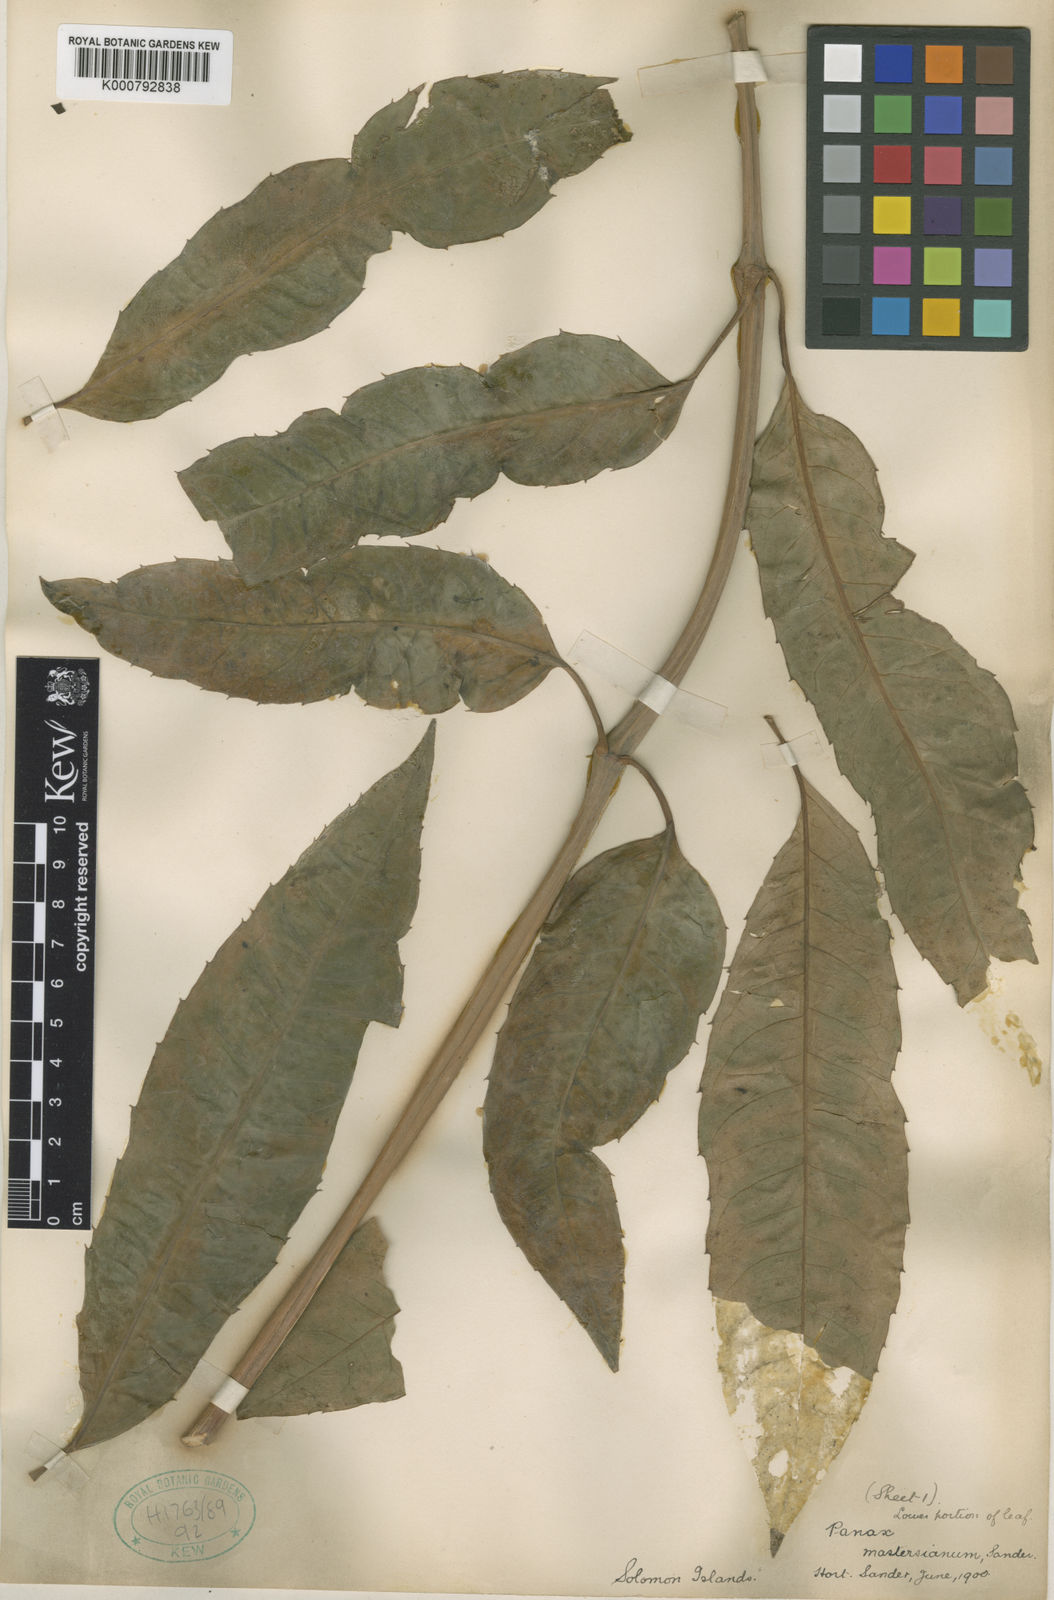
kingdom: Plantae
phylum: Tracheophyta
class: Magnoliopsida
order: Apiales
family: Araliaceae
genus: Polyscias
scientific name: Polyscias
